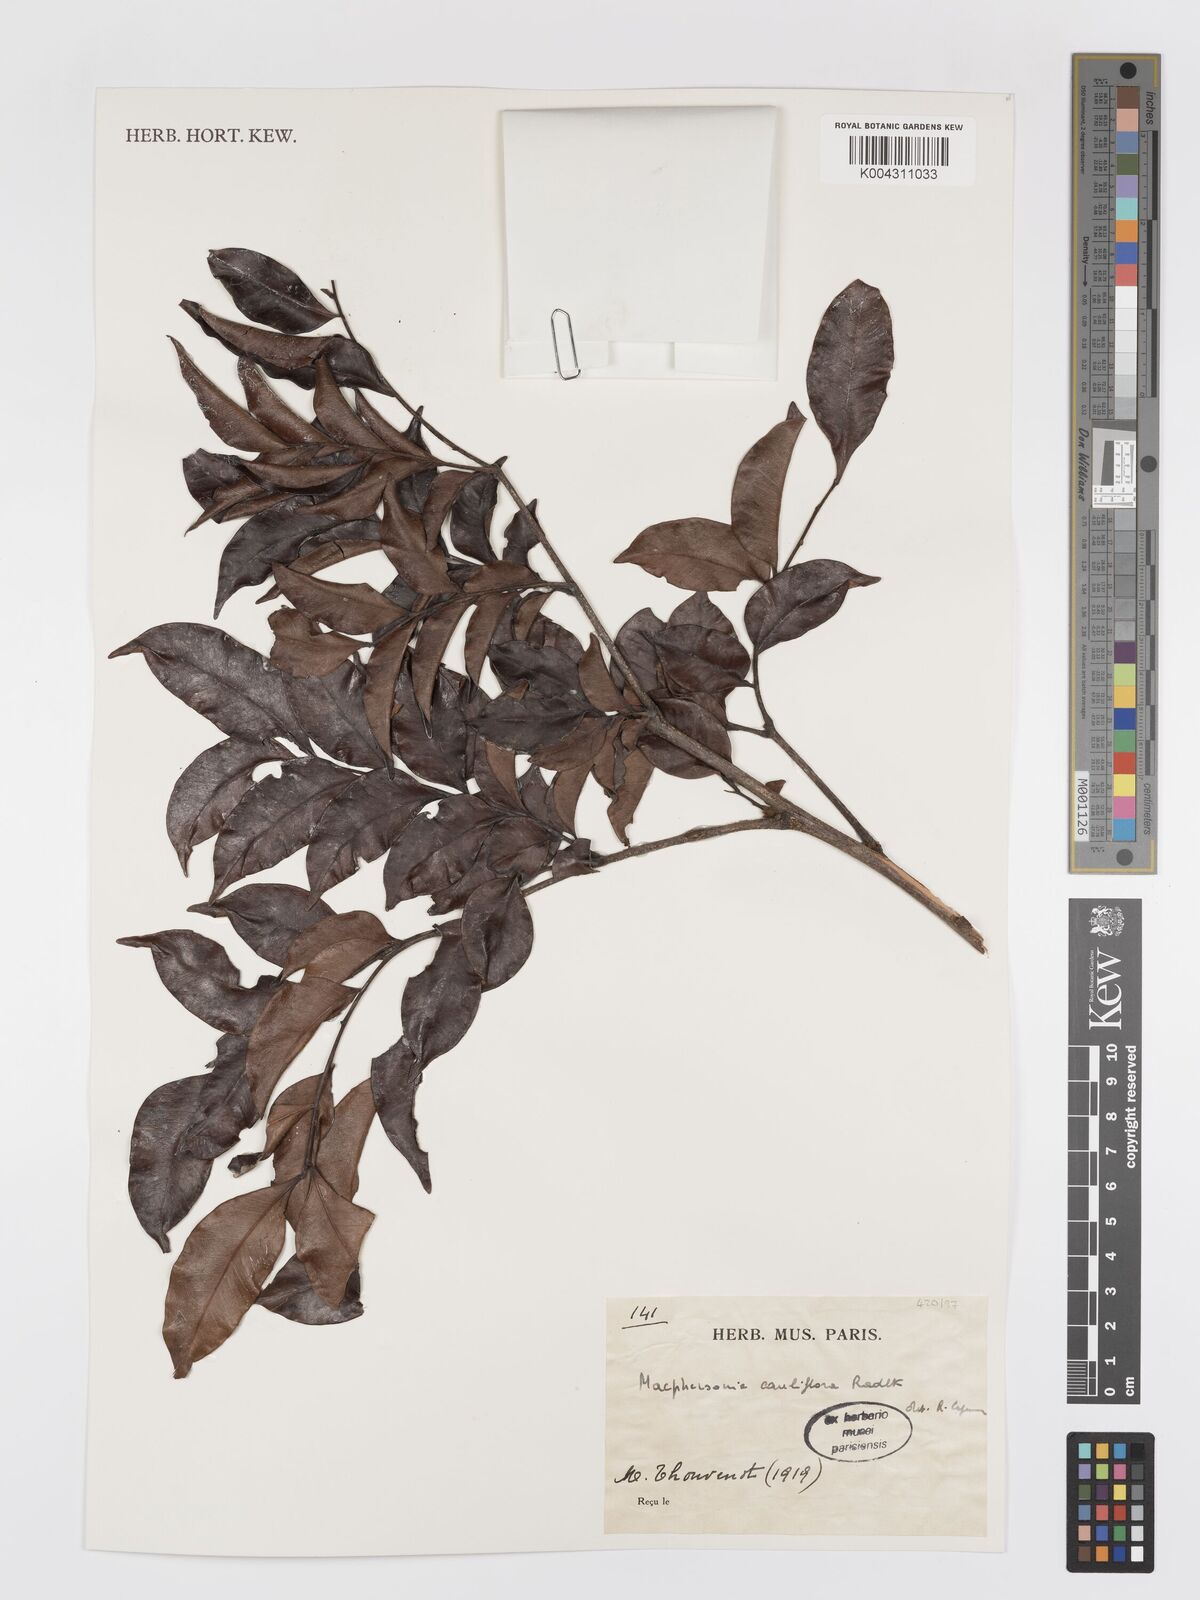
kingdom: Plantae
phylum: Tracheophyta
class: Magnoliopsida
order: Sapindales
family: Sapindaceae
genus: Macphersonia
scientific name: Macphersonia cauliflora
